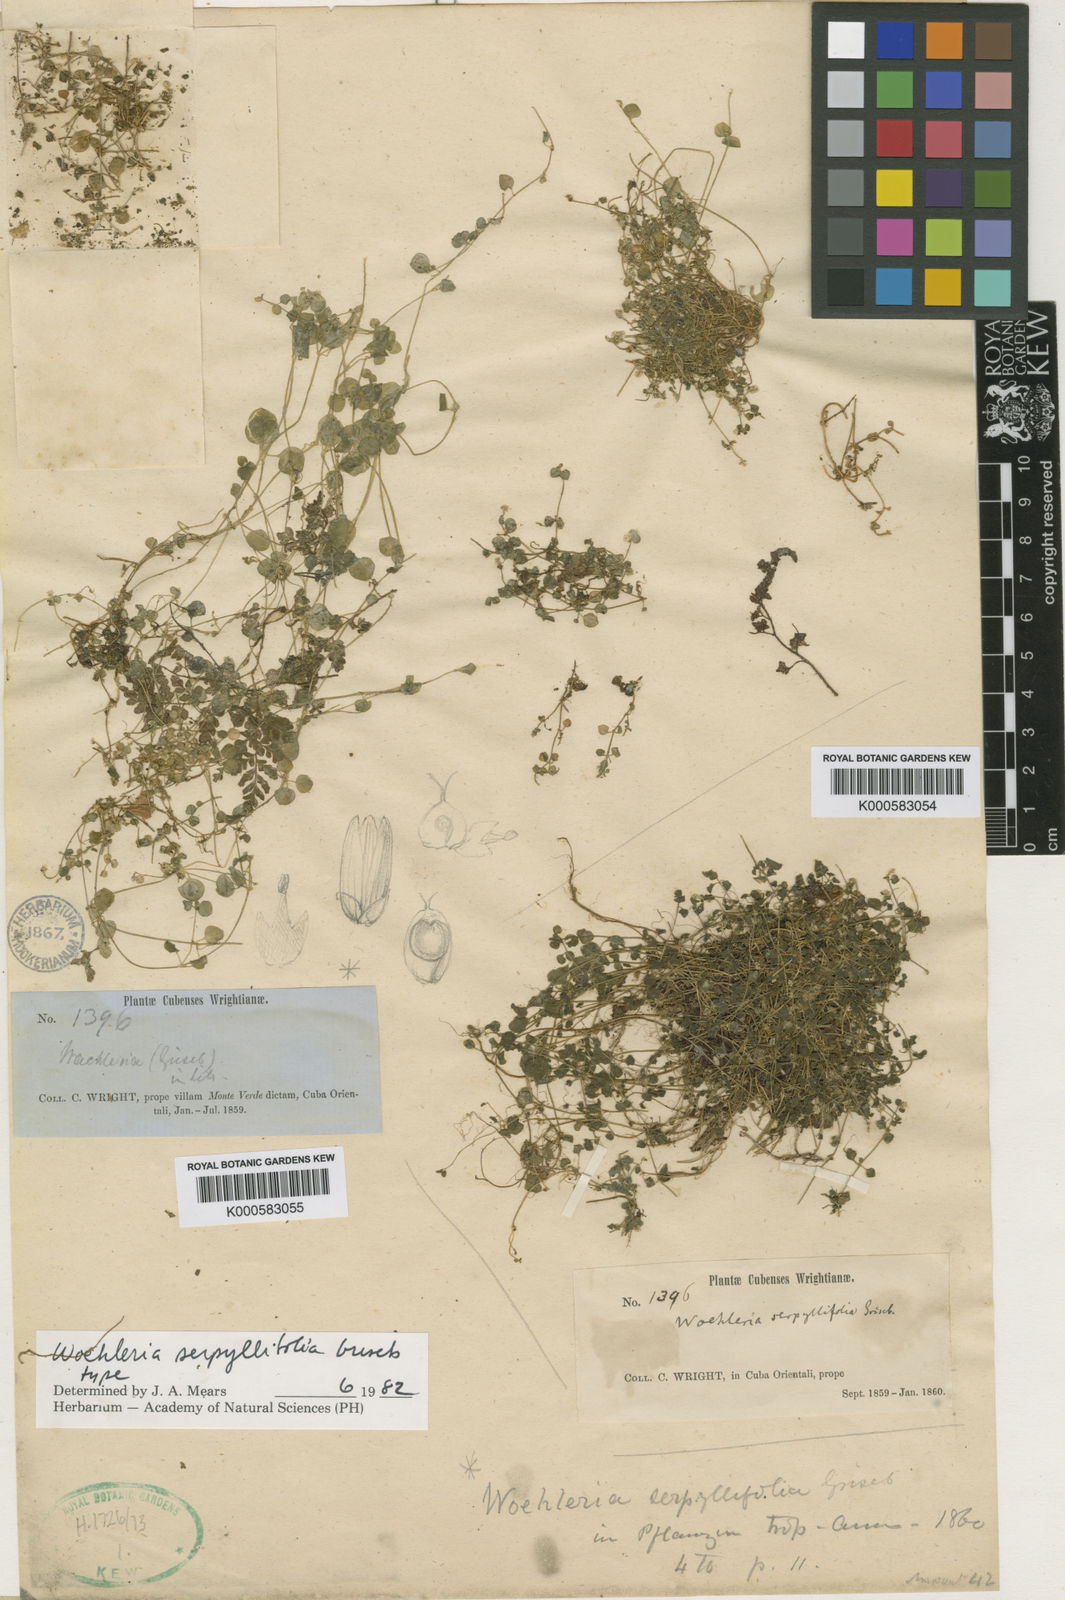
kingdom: Plantae
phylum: Tracheophyta
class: Magnoliopsida
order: Caryophyllales
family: Amaranthaceae
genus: Iresine
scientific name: Iresine cubensis
